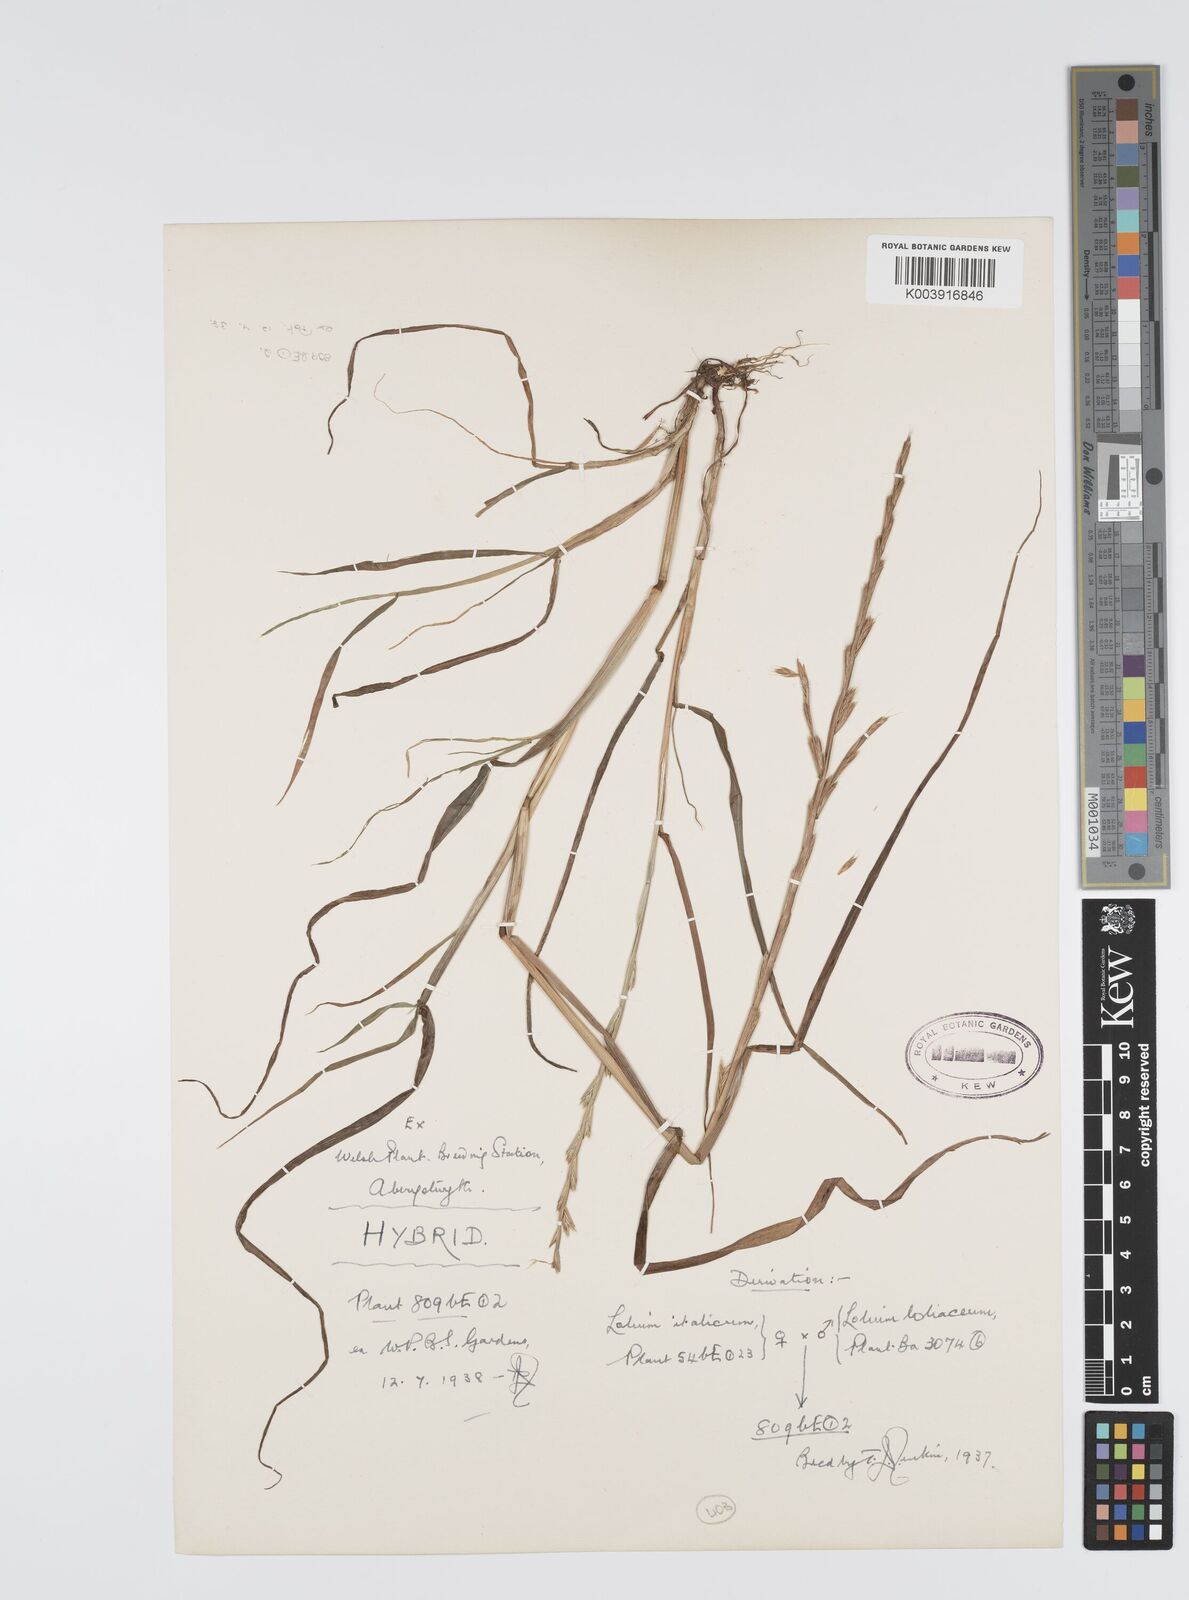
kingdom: Plantae
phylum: Tracheophyta
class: Liliopsida
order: Poales
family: Poaceae
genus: Lolium
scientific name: Lolium multiflorum
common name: Annual ryegrass
